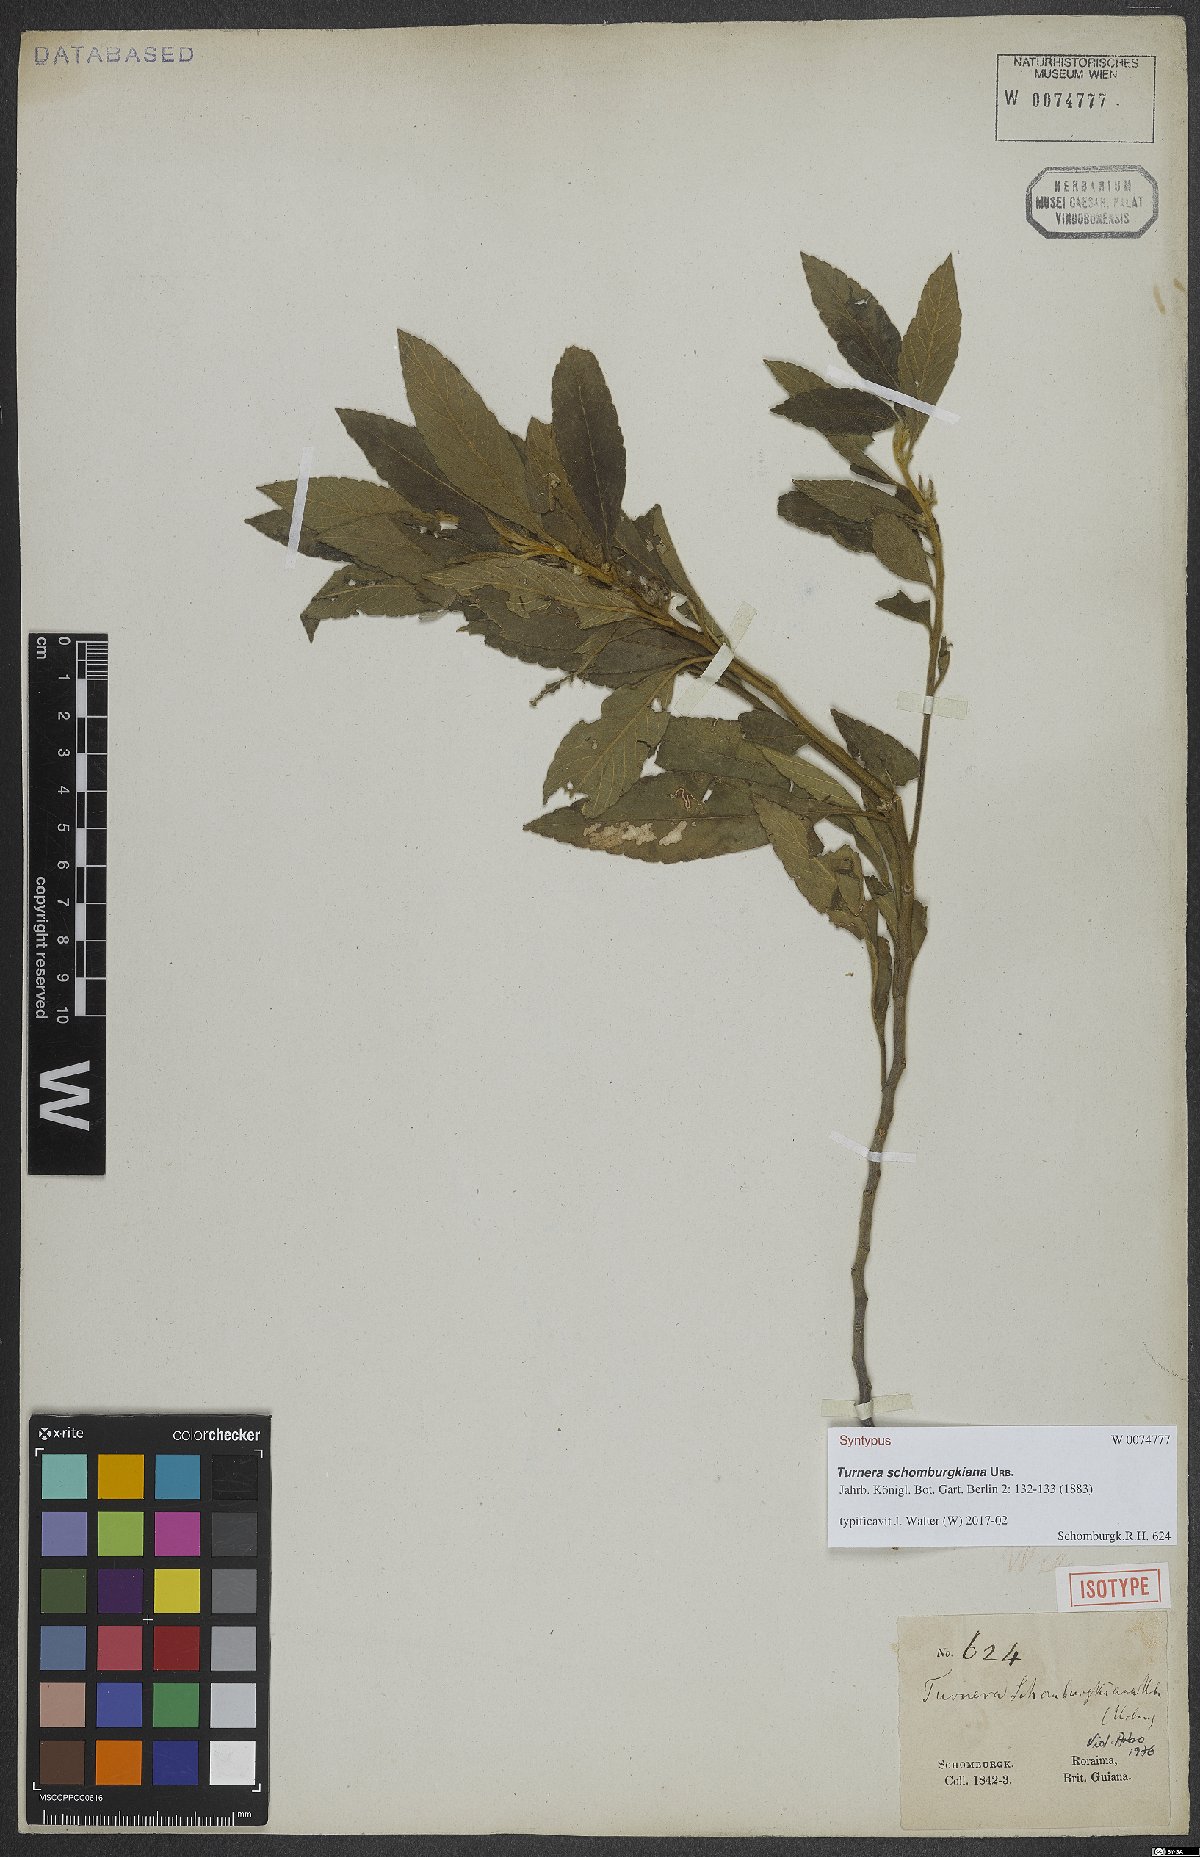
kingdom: Plantae
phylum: Tracheophyta
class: Magnoliopsida
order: Malpighiales
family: Turneraceae
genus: Oxossia
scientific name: Oxossia schomburgkiana
